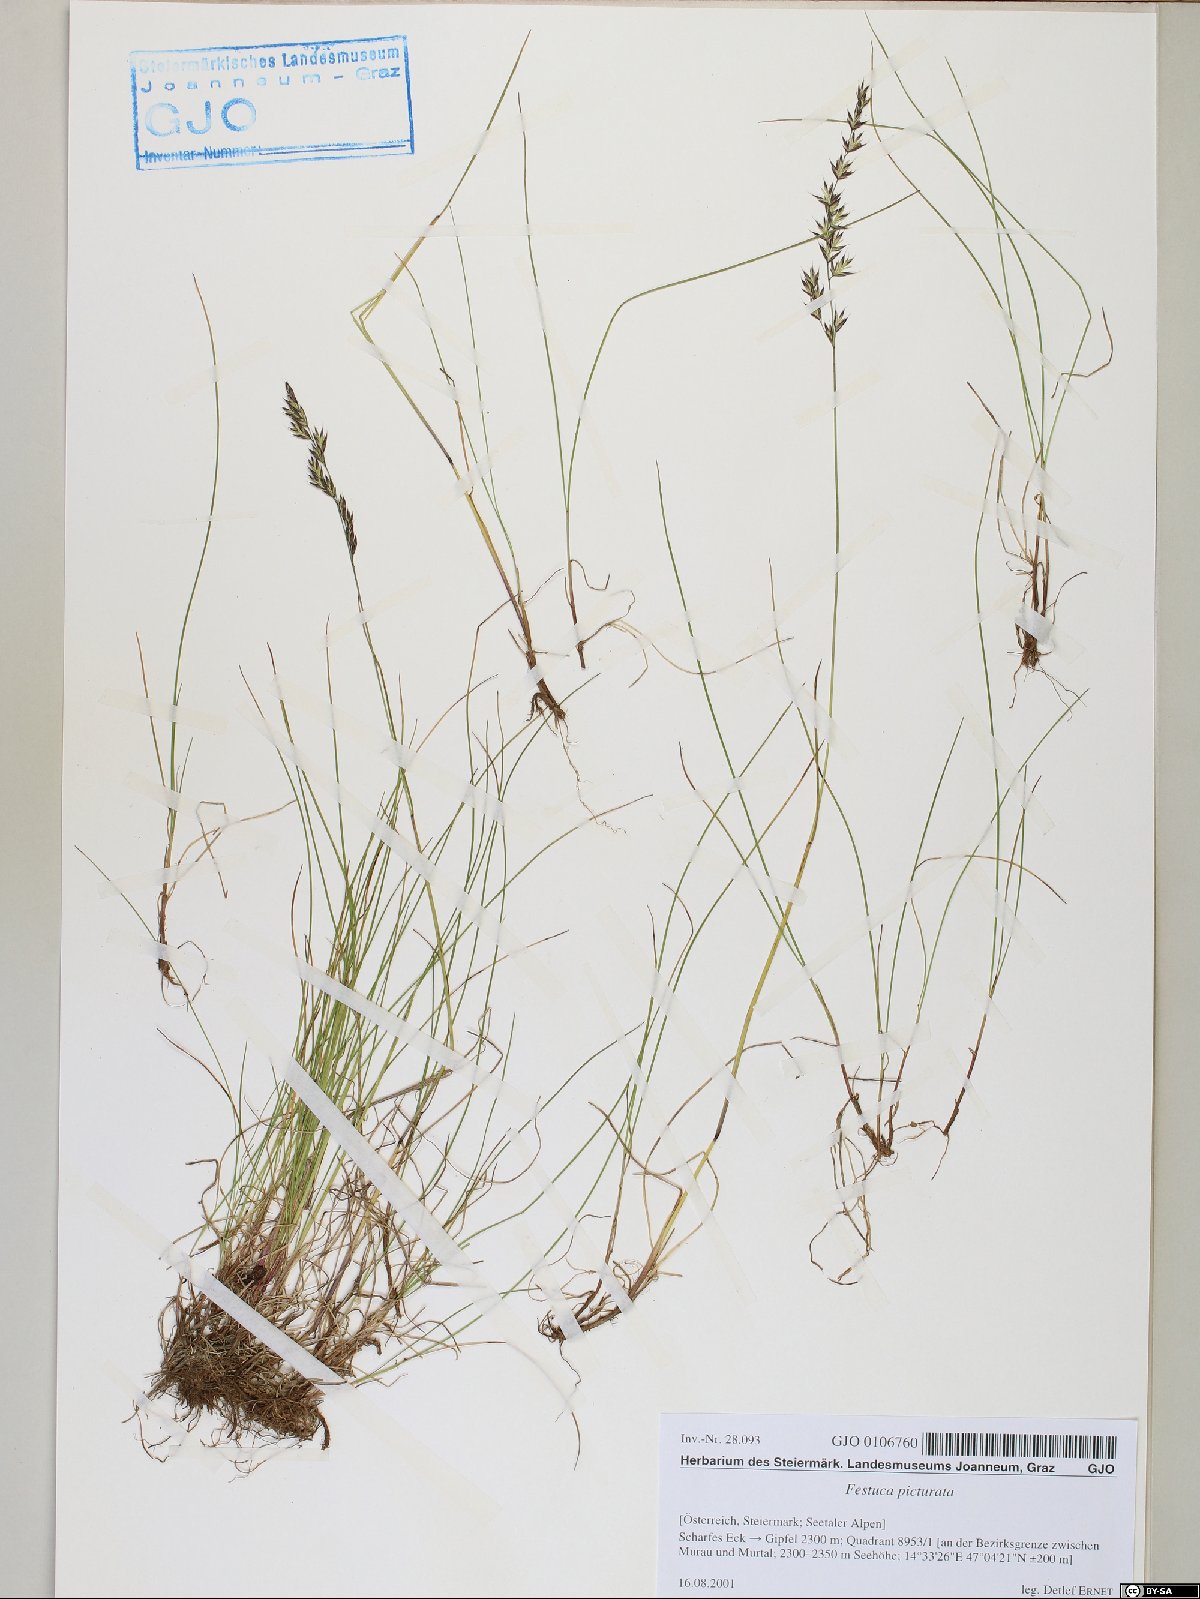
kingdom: Plantae
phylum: Tracheophyta
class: Liliopsida
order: Poales
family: Poaceae
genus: Festuca
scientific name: Festuca picturata
